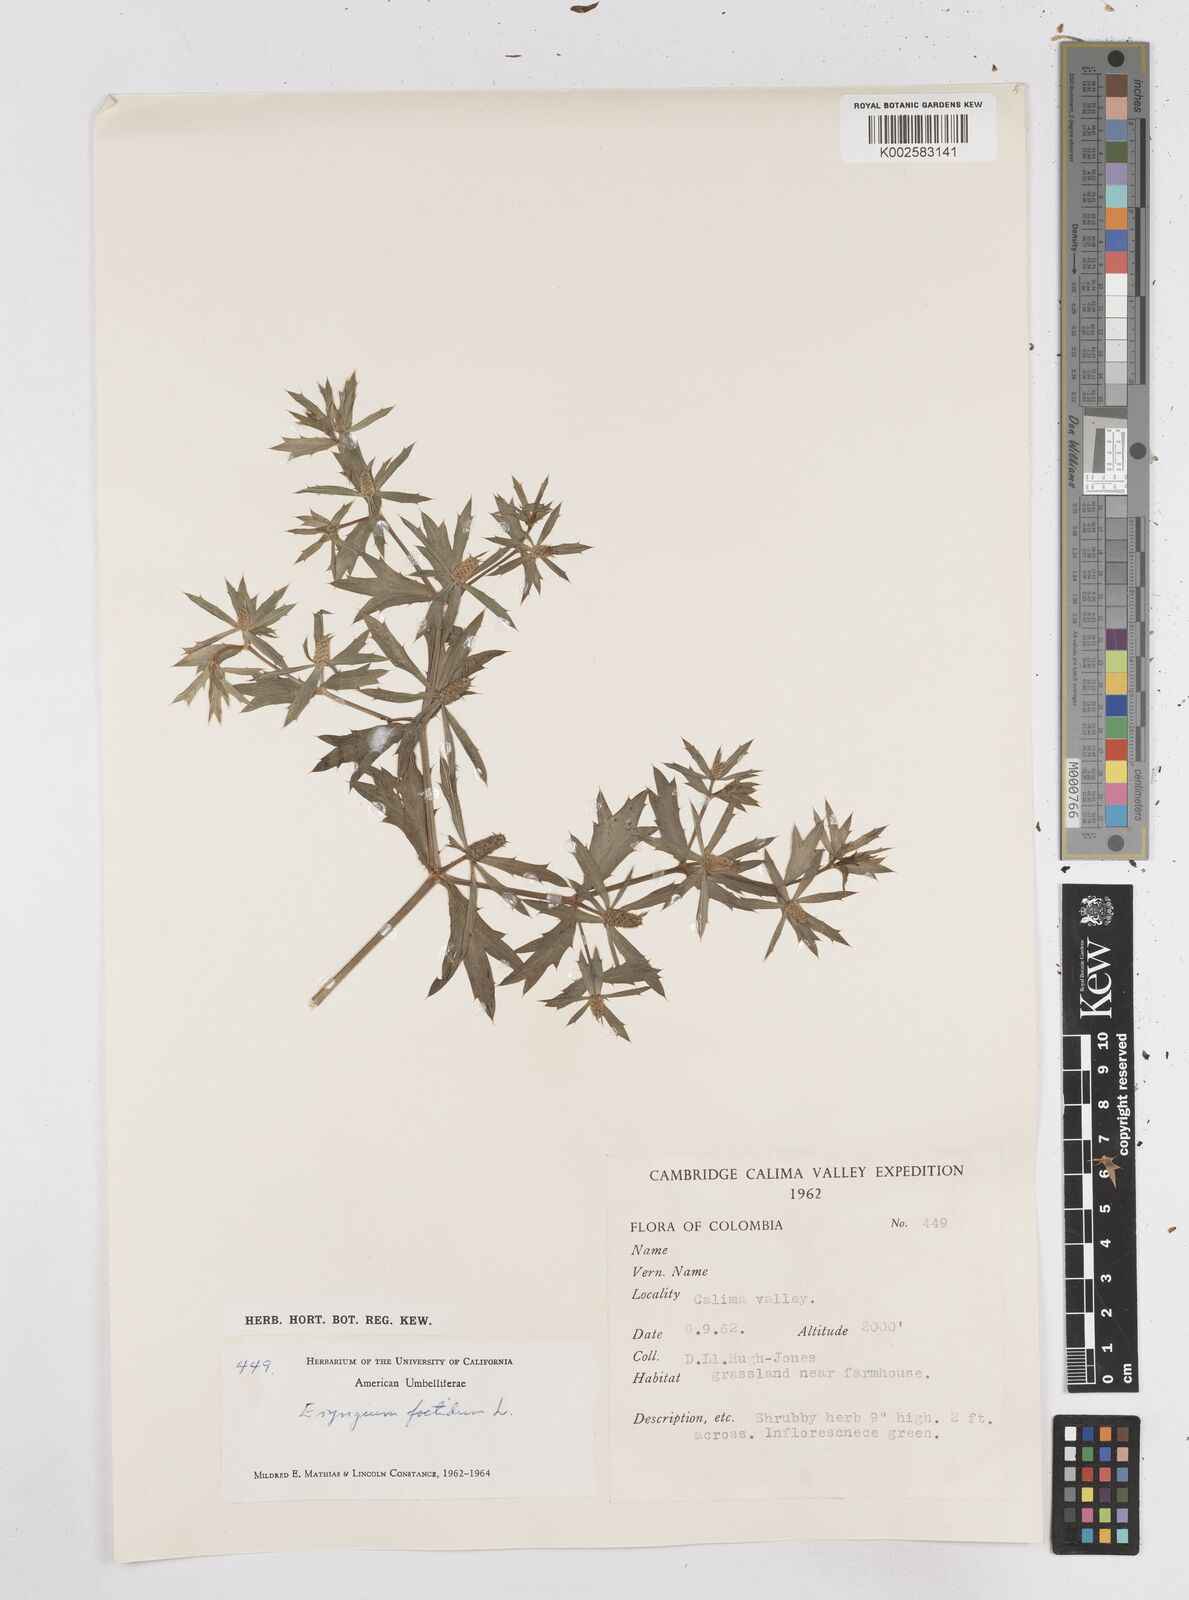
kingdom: Plantae
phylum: Tracheophyta
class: Magnoliopsida
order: Apiales
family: Apiaceae
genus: Eryngium
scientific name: Eryngium foetidum
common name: Fitweed
